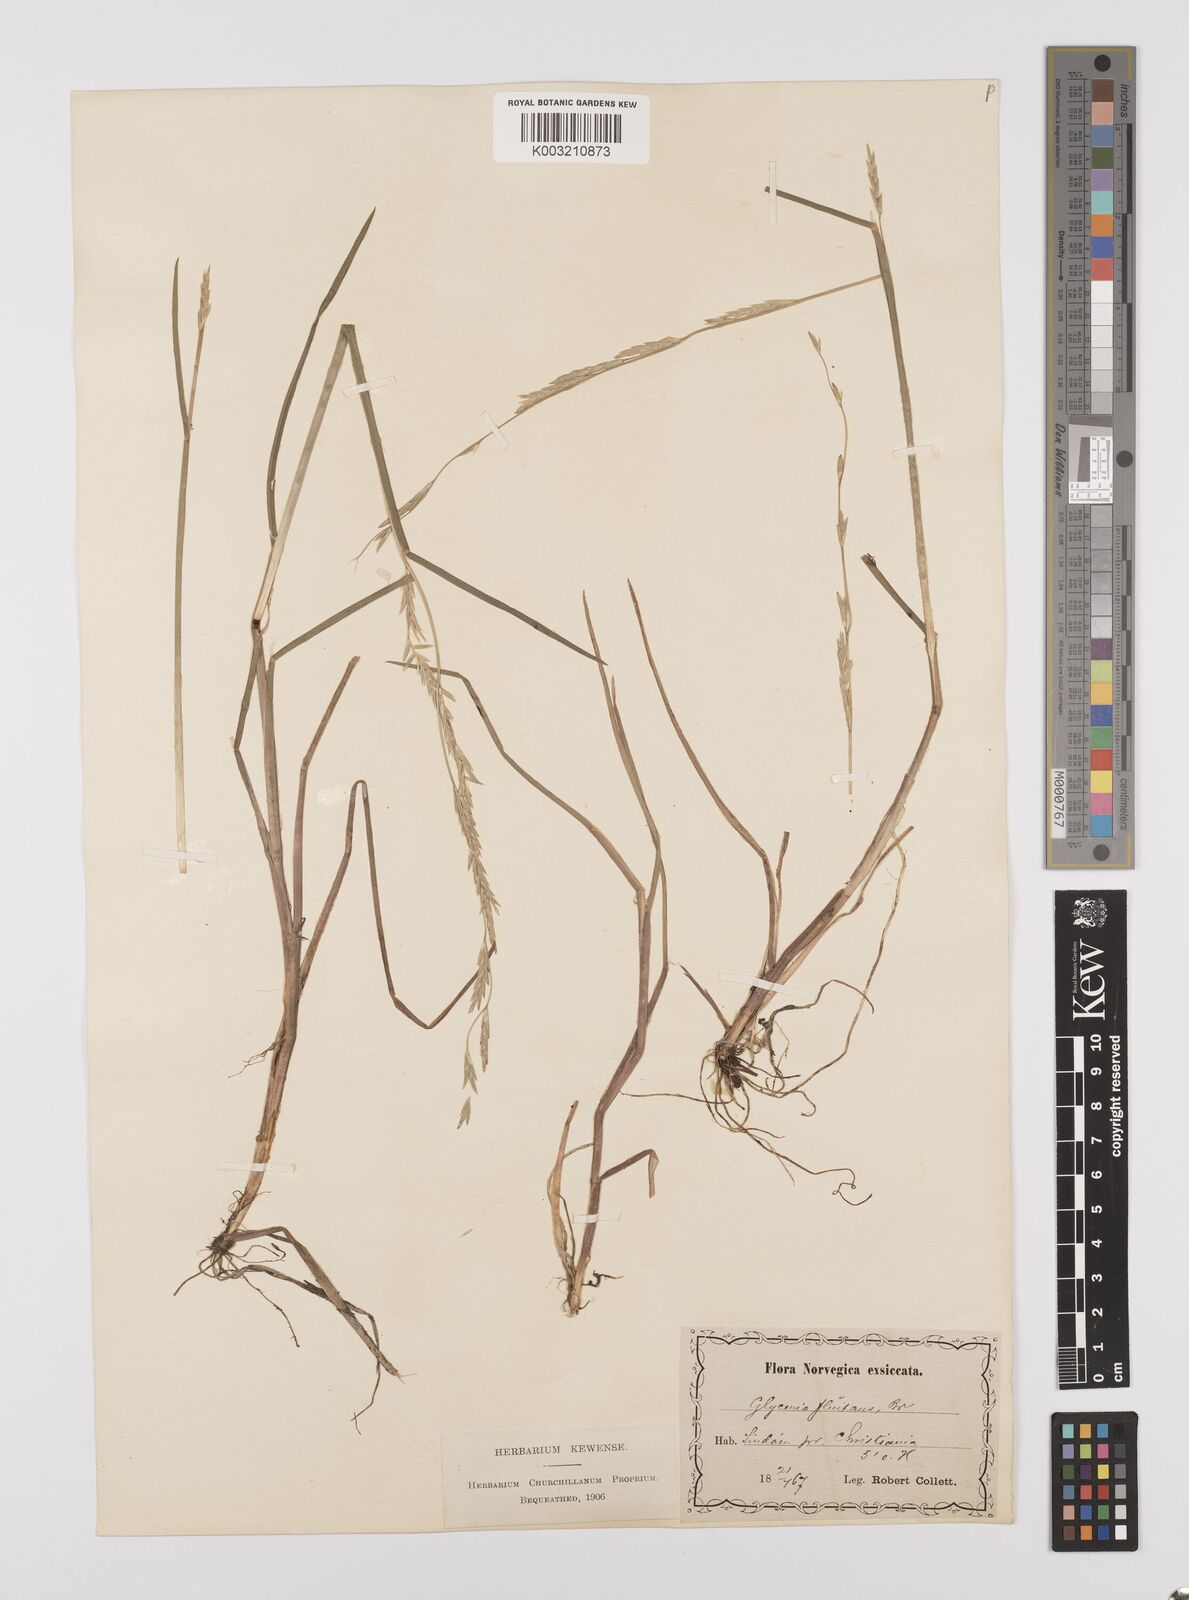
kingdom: Plantae
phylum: Tracheophyta
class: Liliopsida
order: Poales
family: Poaceae
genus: Glyceria
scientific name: Glyceria fluitans
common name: Floating sweet-grass
